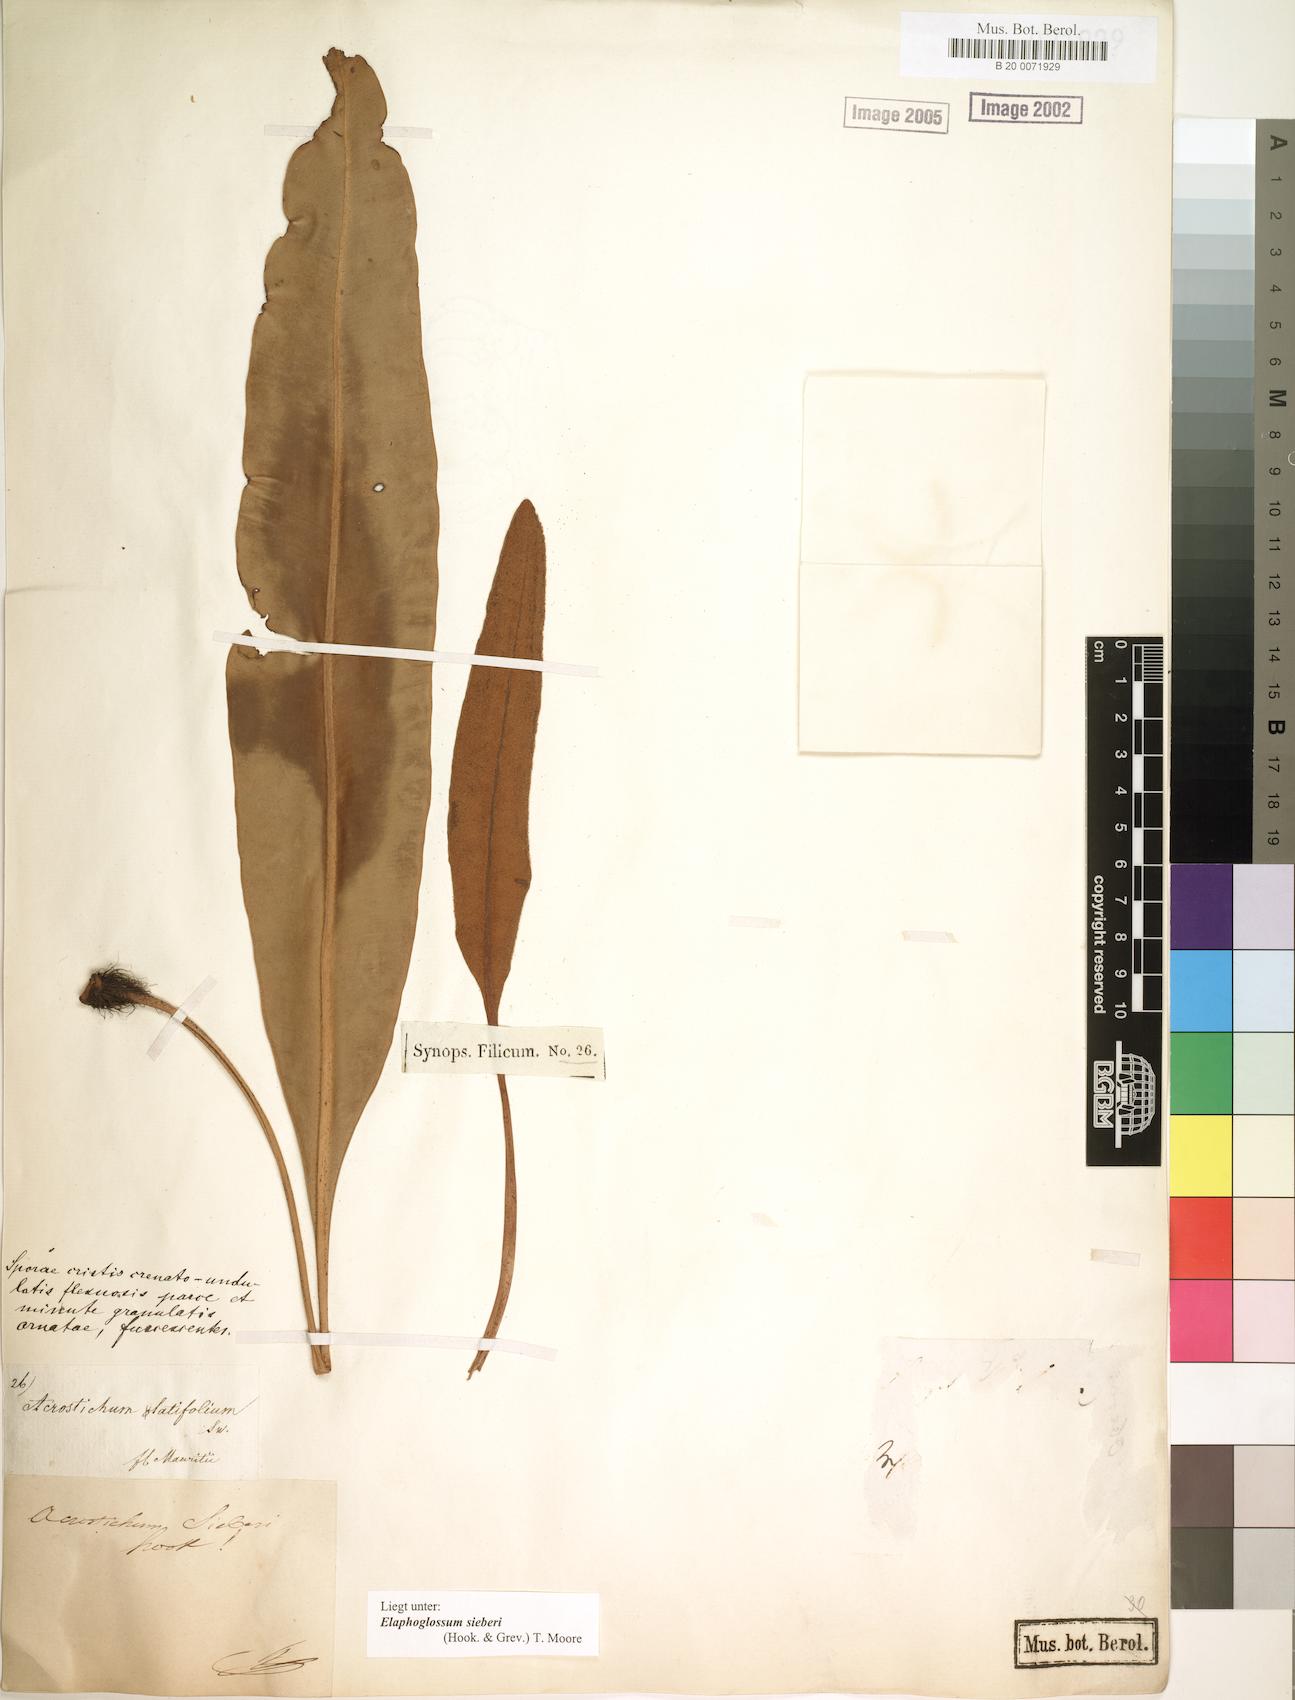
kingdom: Plantae
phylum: Tracheophyta
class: Polypodiopsida
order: Polypodiales
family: Dryopteridaceae
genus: Elaphoglossum
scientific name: Elaphoglossum sieberi
